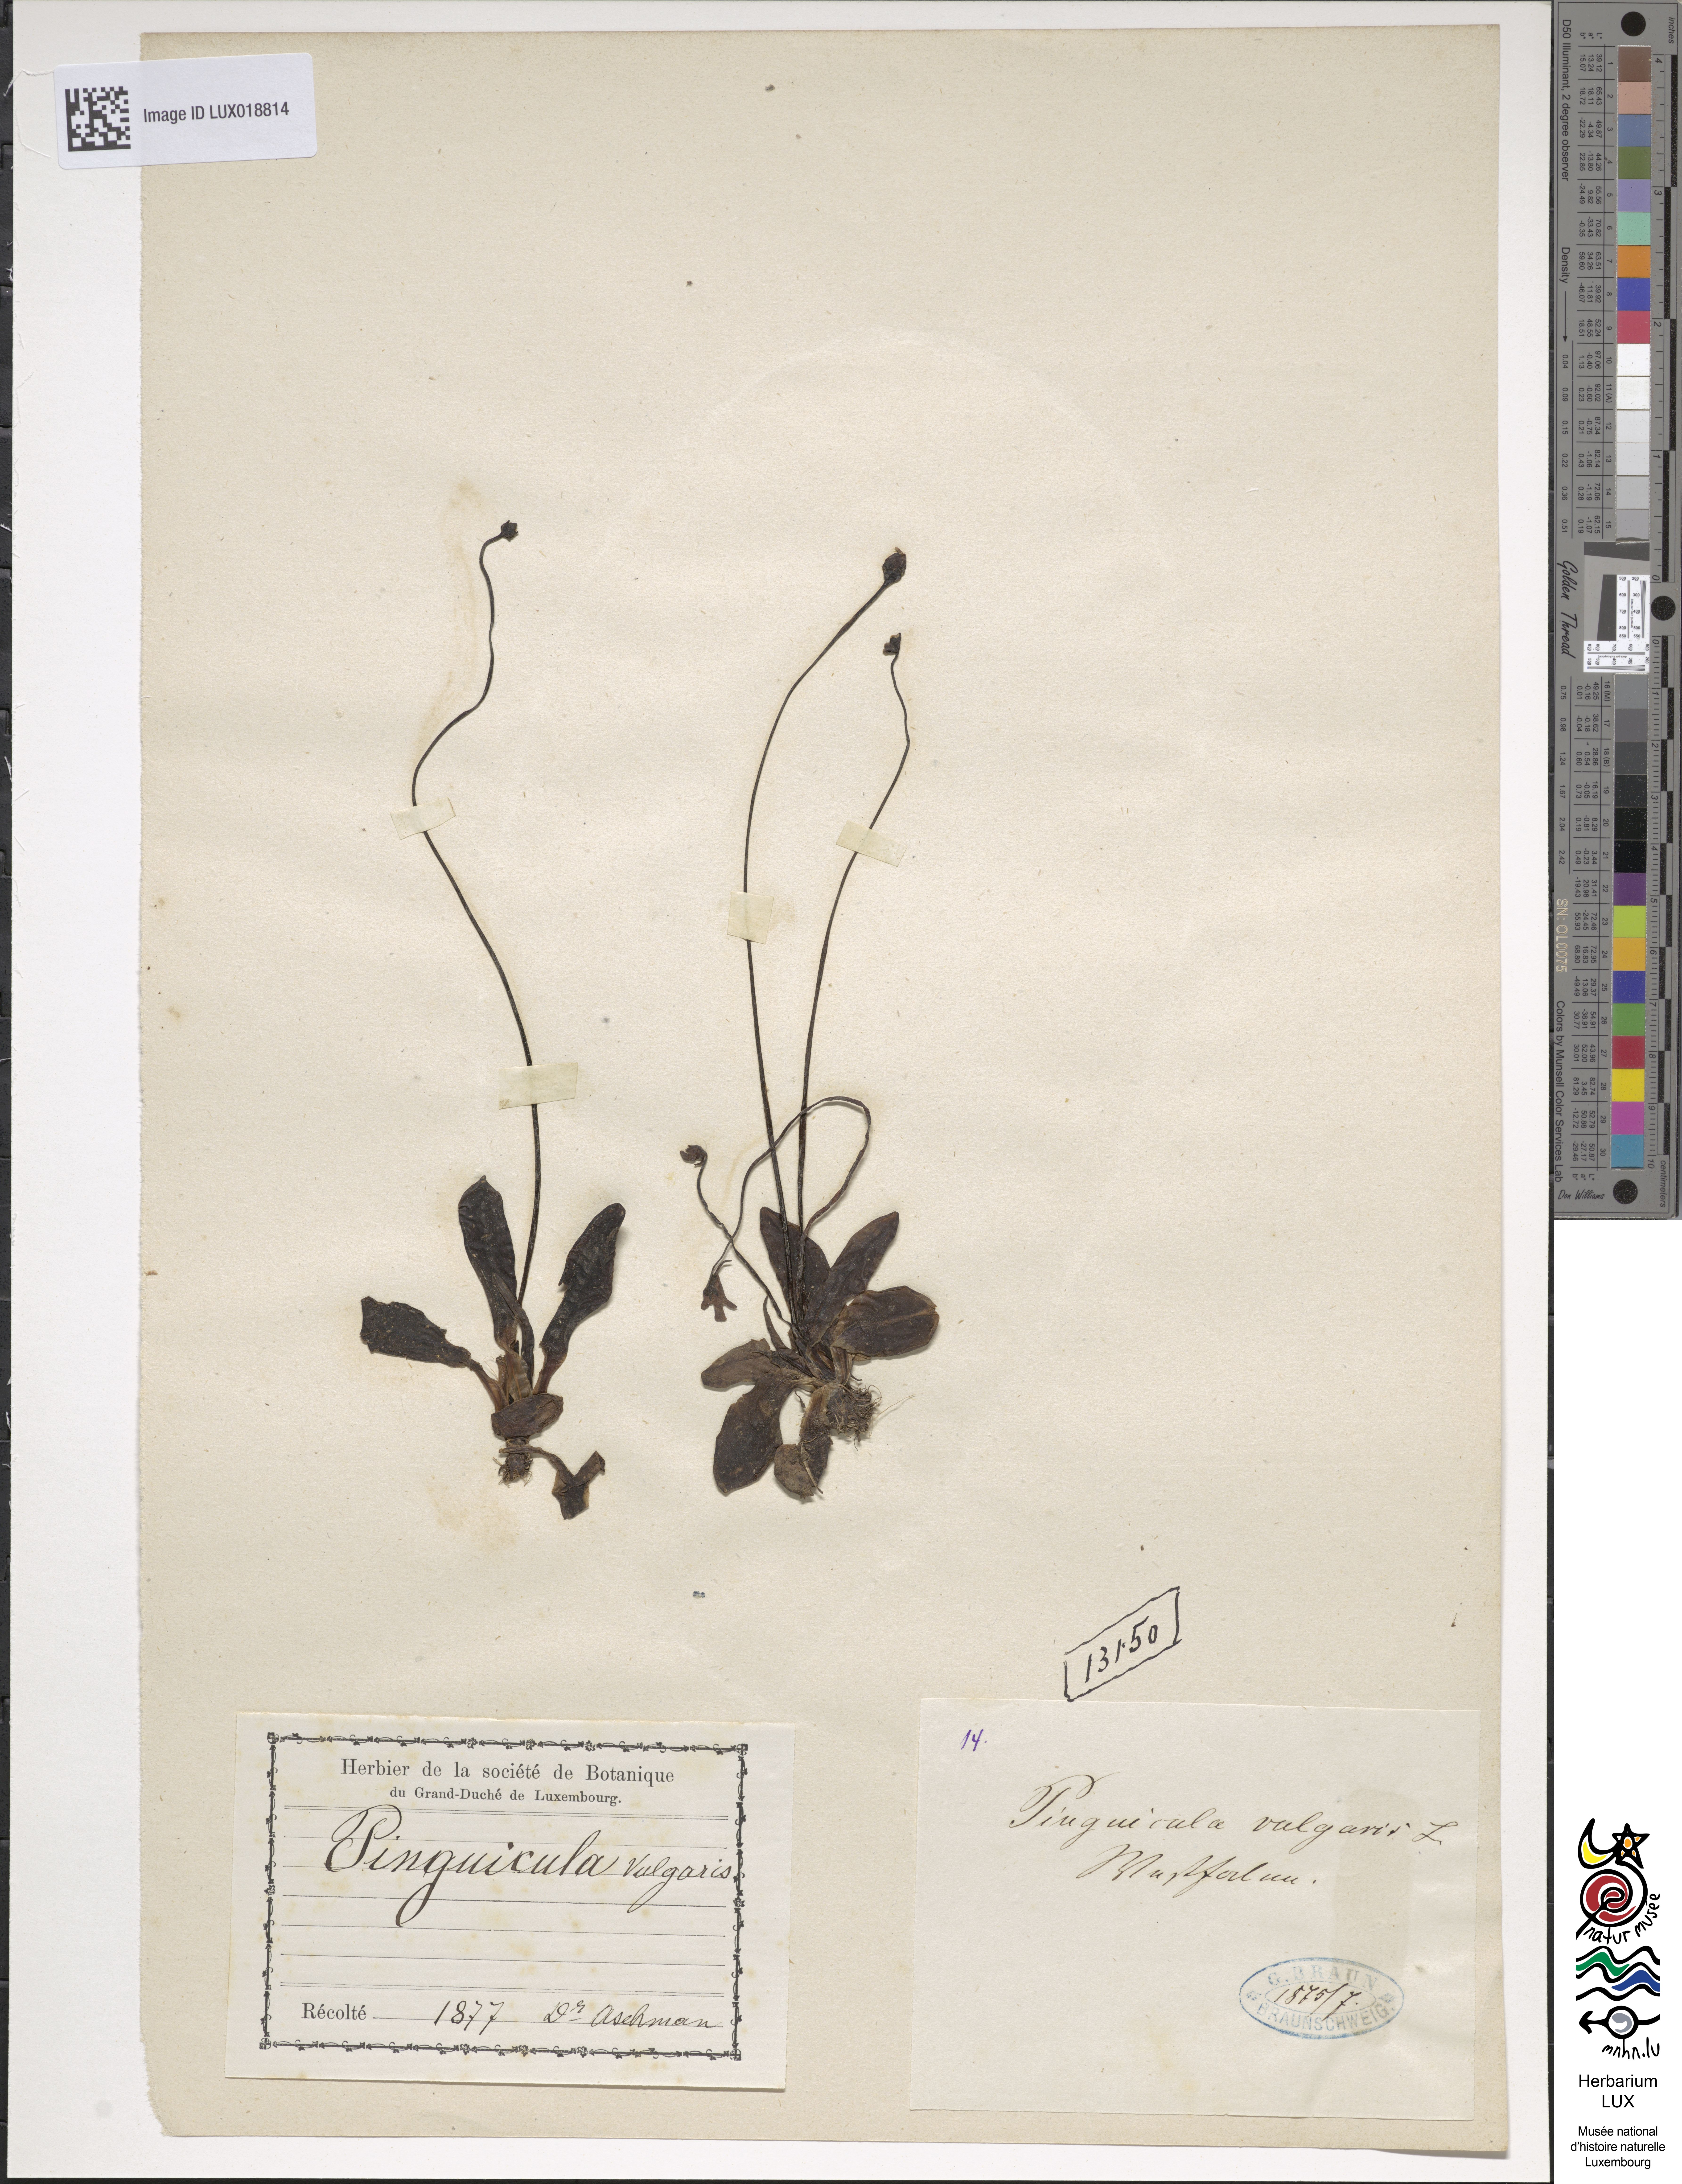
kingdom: Plantae
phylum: Tracheophyta
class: Magnoliopsida
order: Lamiales
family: Lentibulariaceae
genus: Pinguicula
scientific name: Pinguicula vulgaris
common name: Common butterwort
